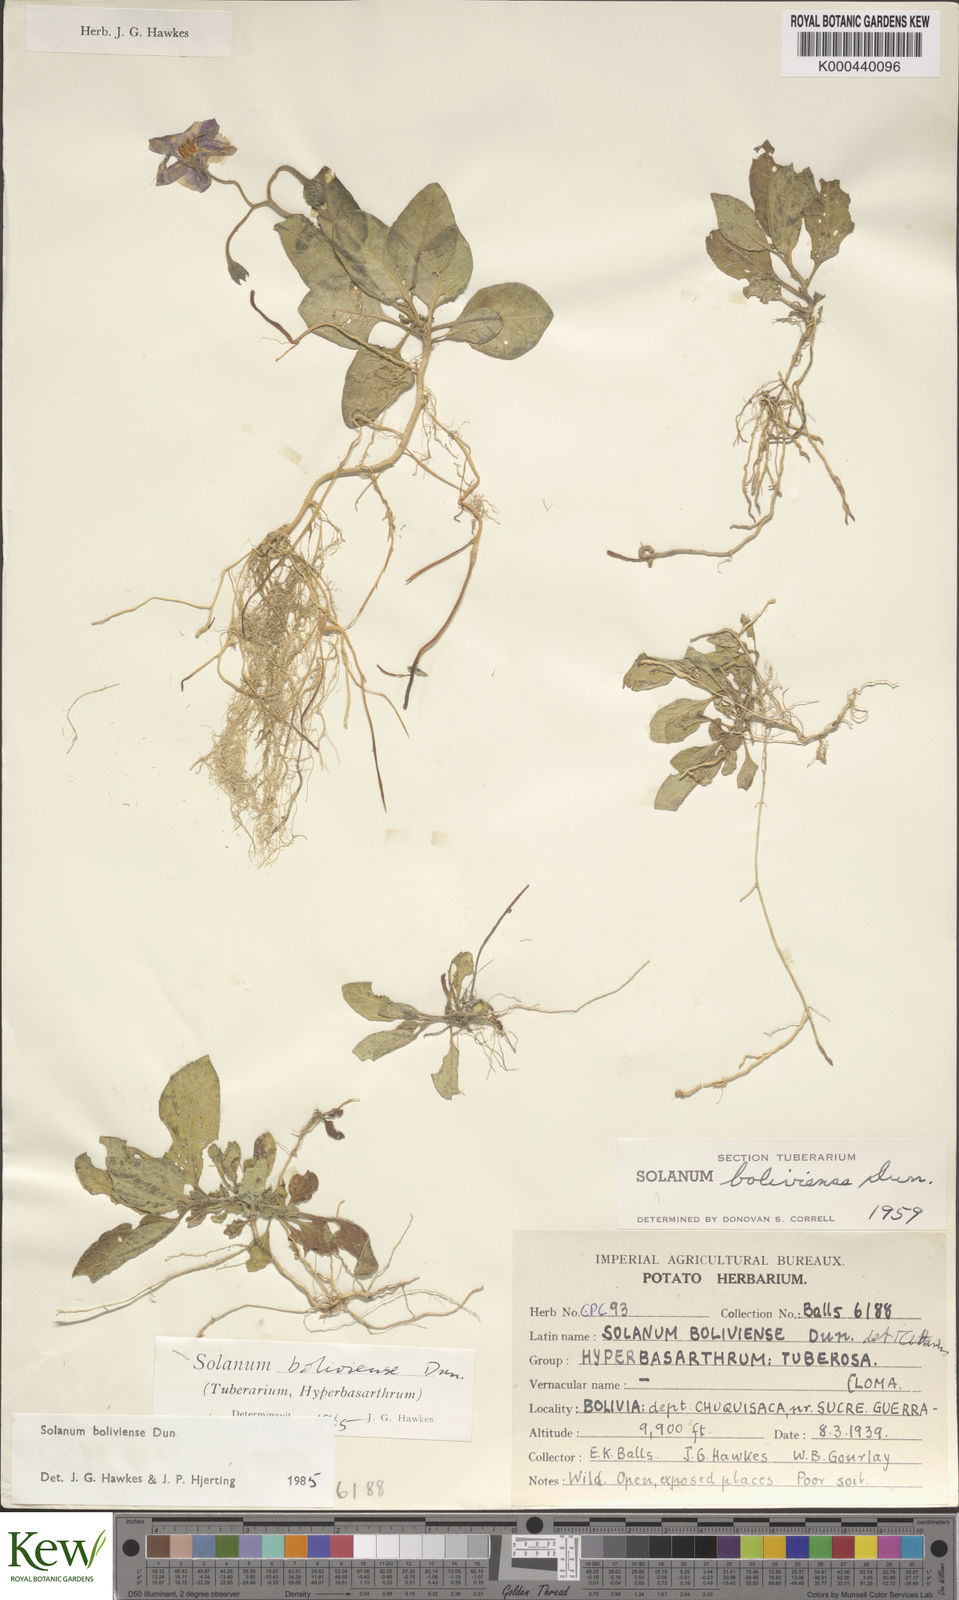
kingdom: Plantae
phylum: Tracheophyta
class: Magnoliopsida
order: Solanales
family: Solanaceae
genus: Solanum
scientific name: Solanum boliviense
